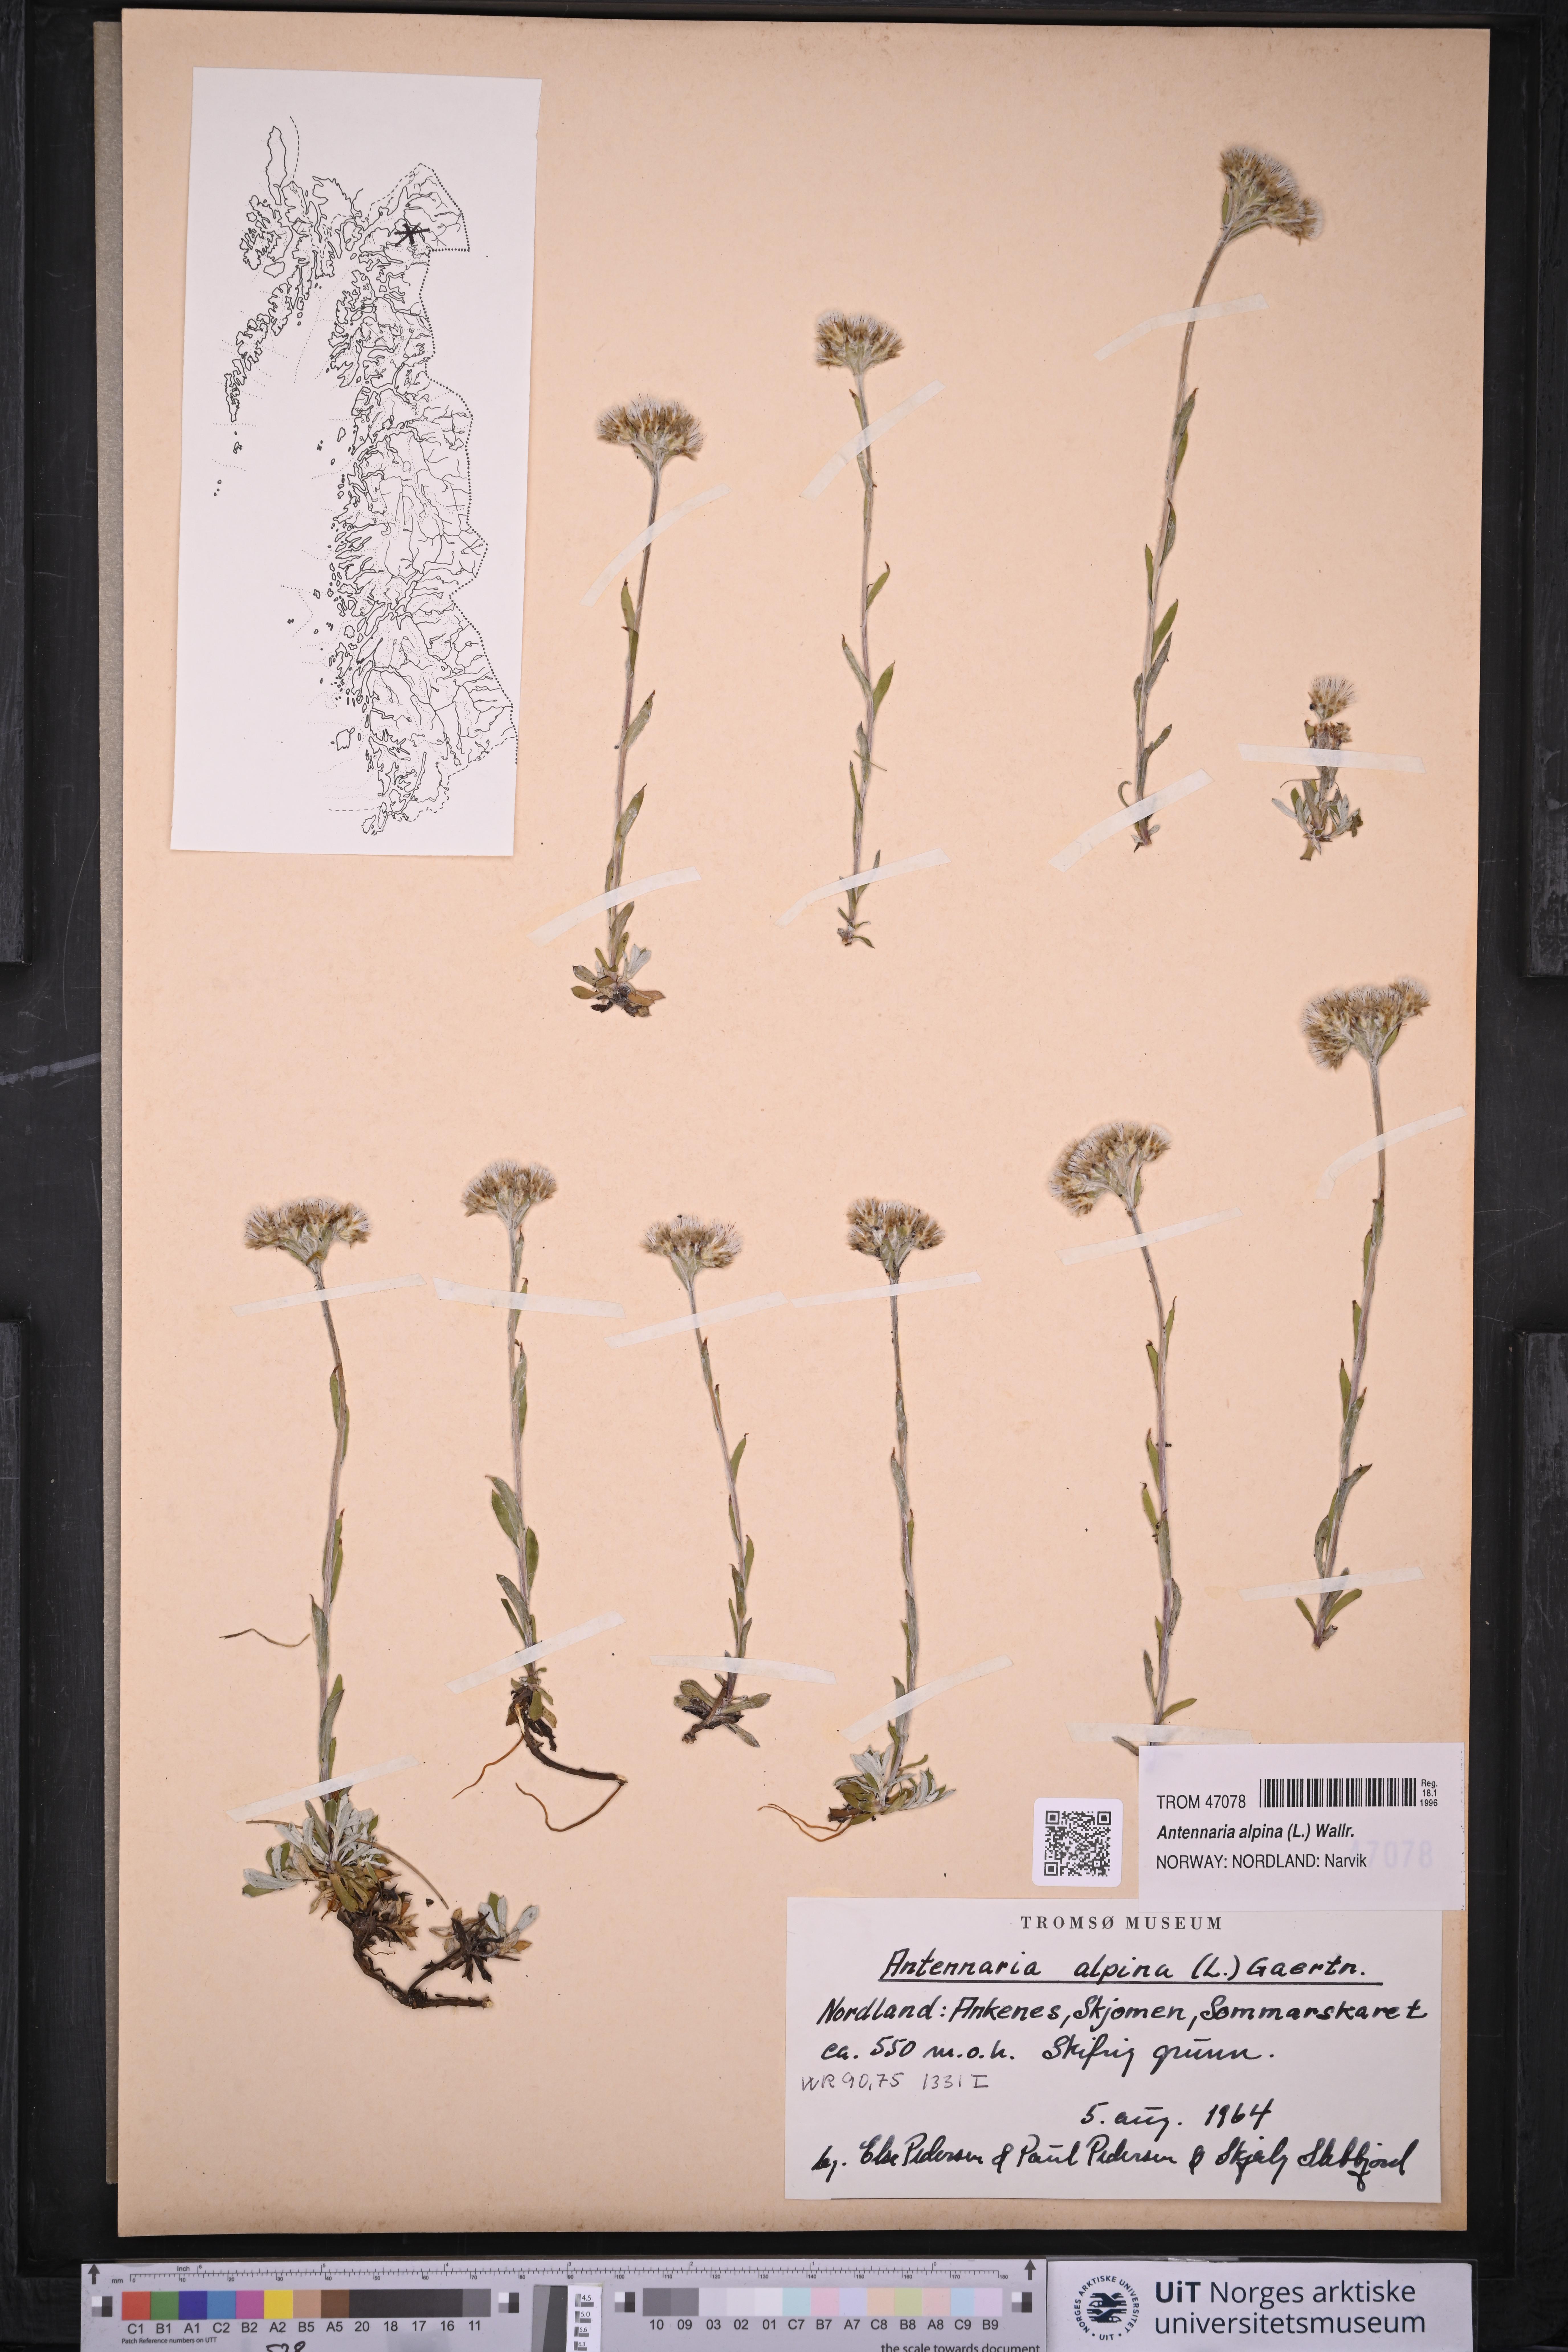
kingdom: Plantae
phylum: Tracheophyta
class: Magnoliopsida
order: Asterales
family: Asteraceae
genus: Antennaria
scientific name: Antennaria alpina
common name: Alpine pussytoes
